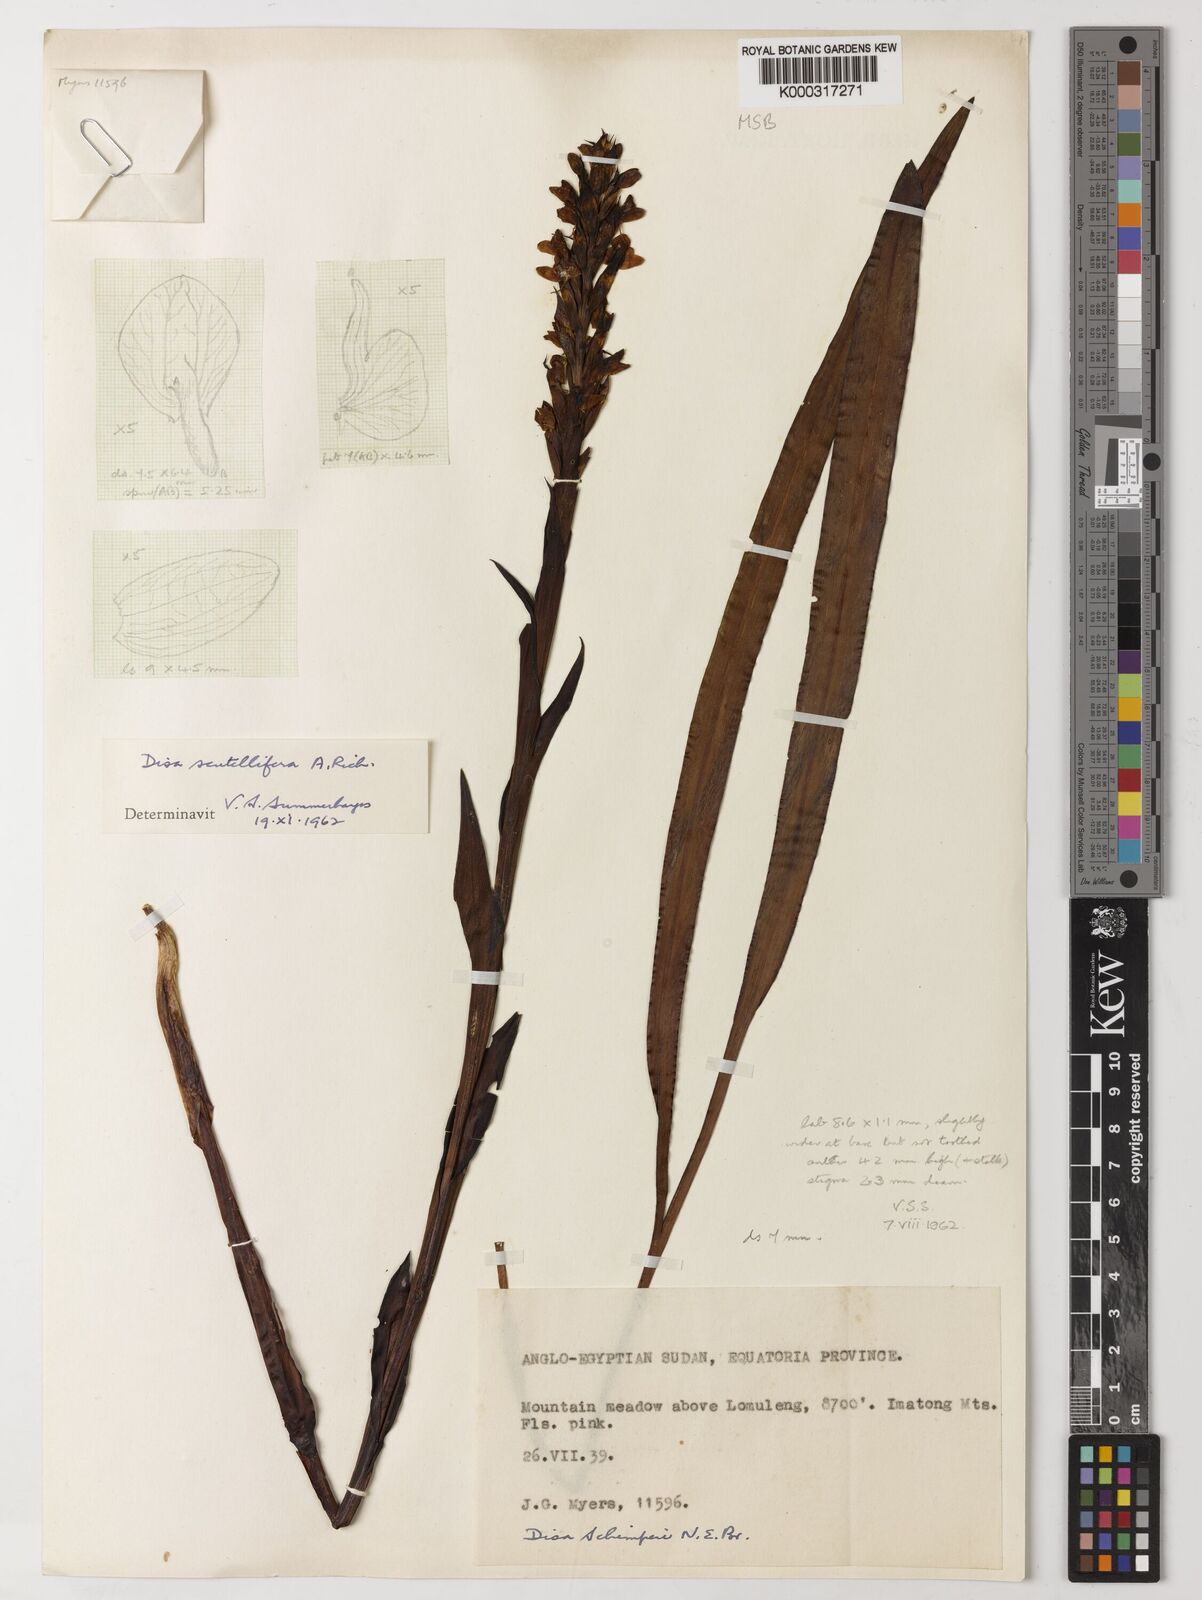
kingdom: Plantae
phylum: Tracheophyta
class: Liliopsida
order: Asparagales
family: Orchidaceae
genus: Disa
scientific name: Disa scutellifera
